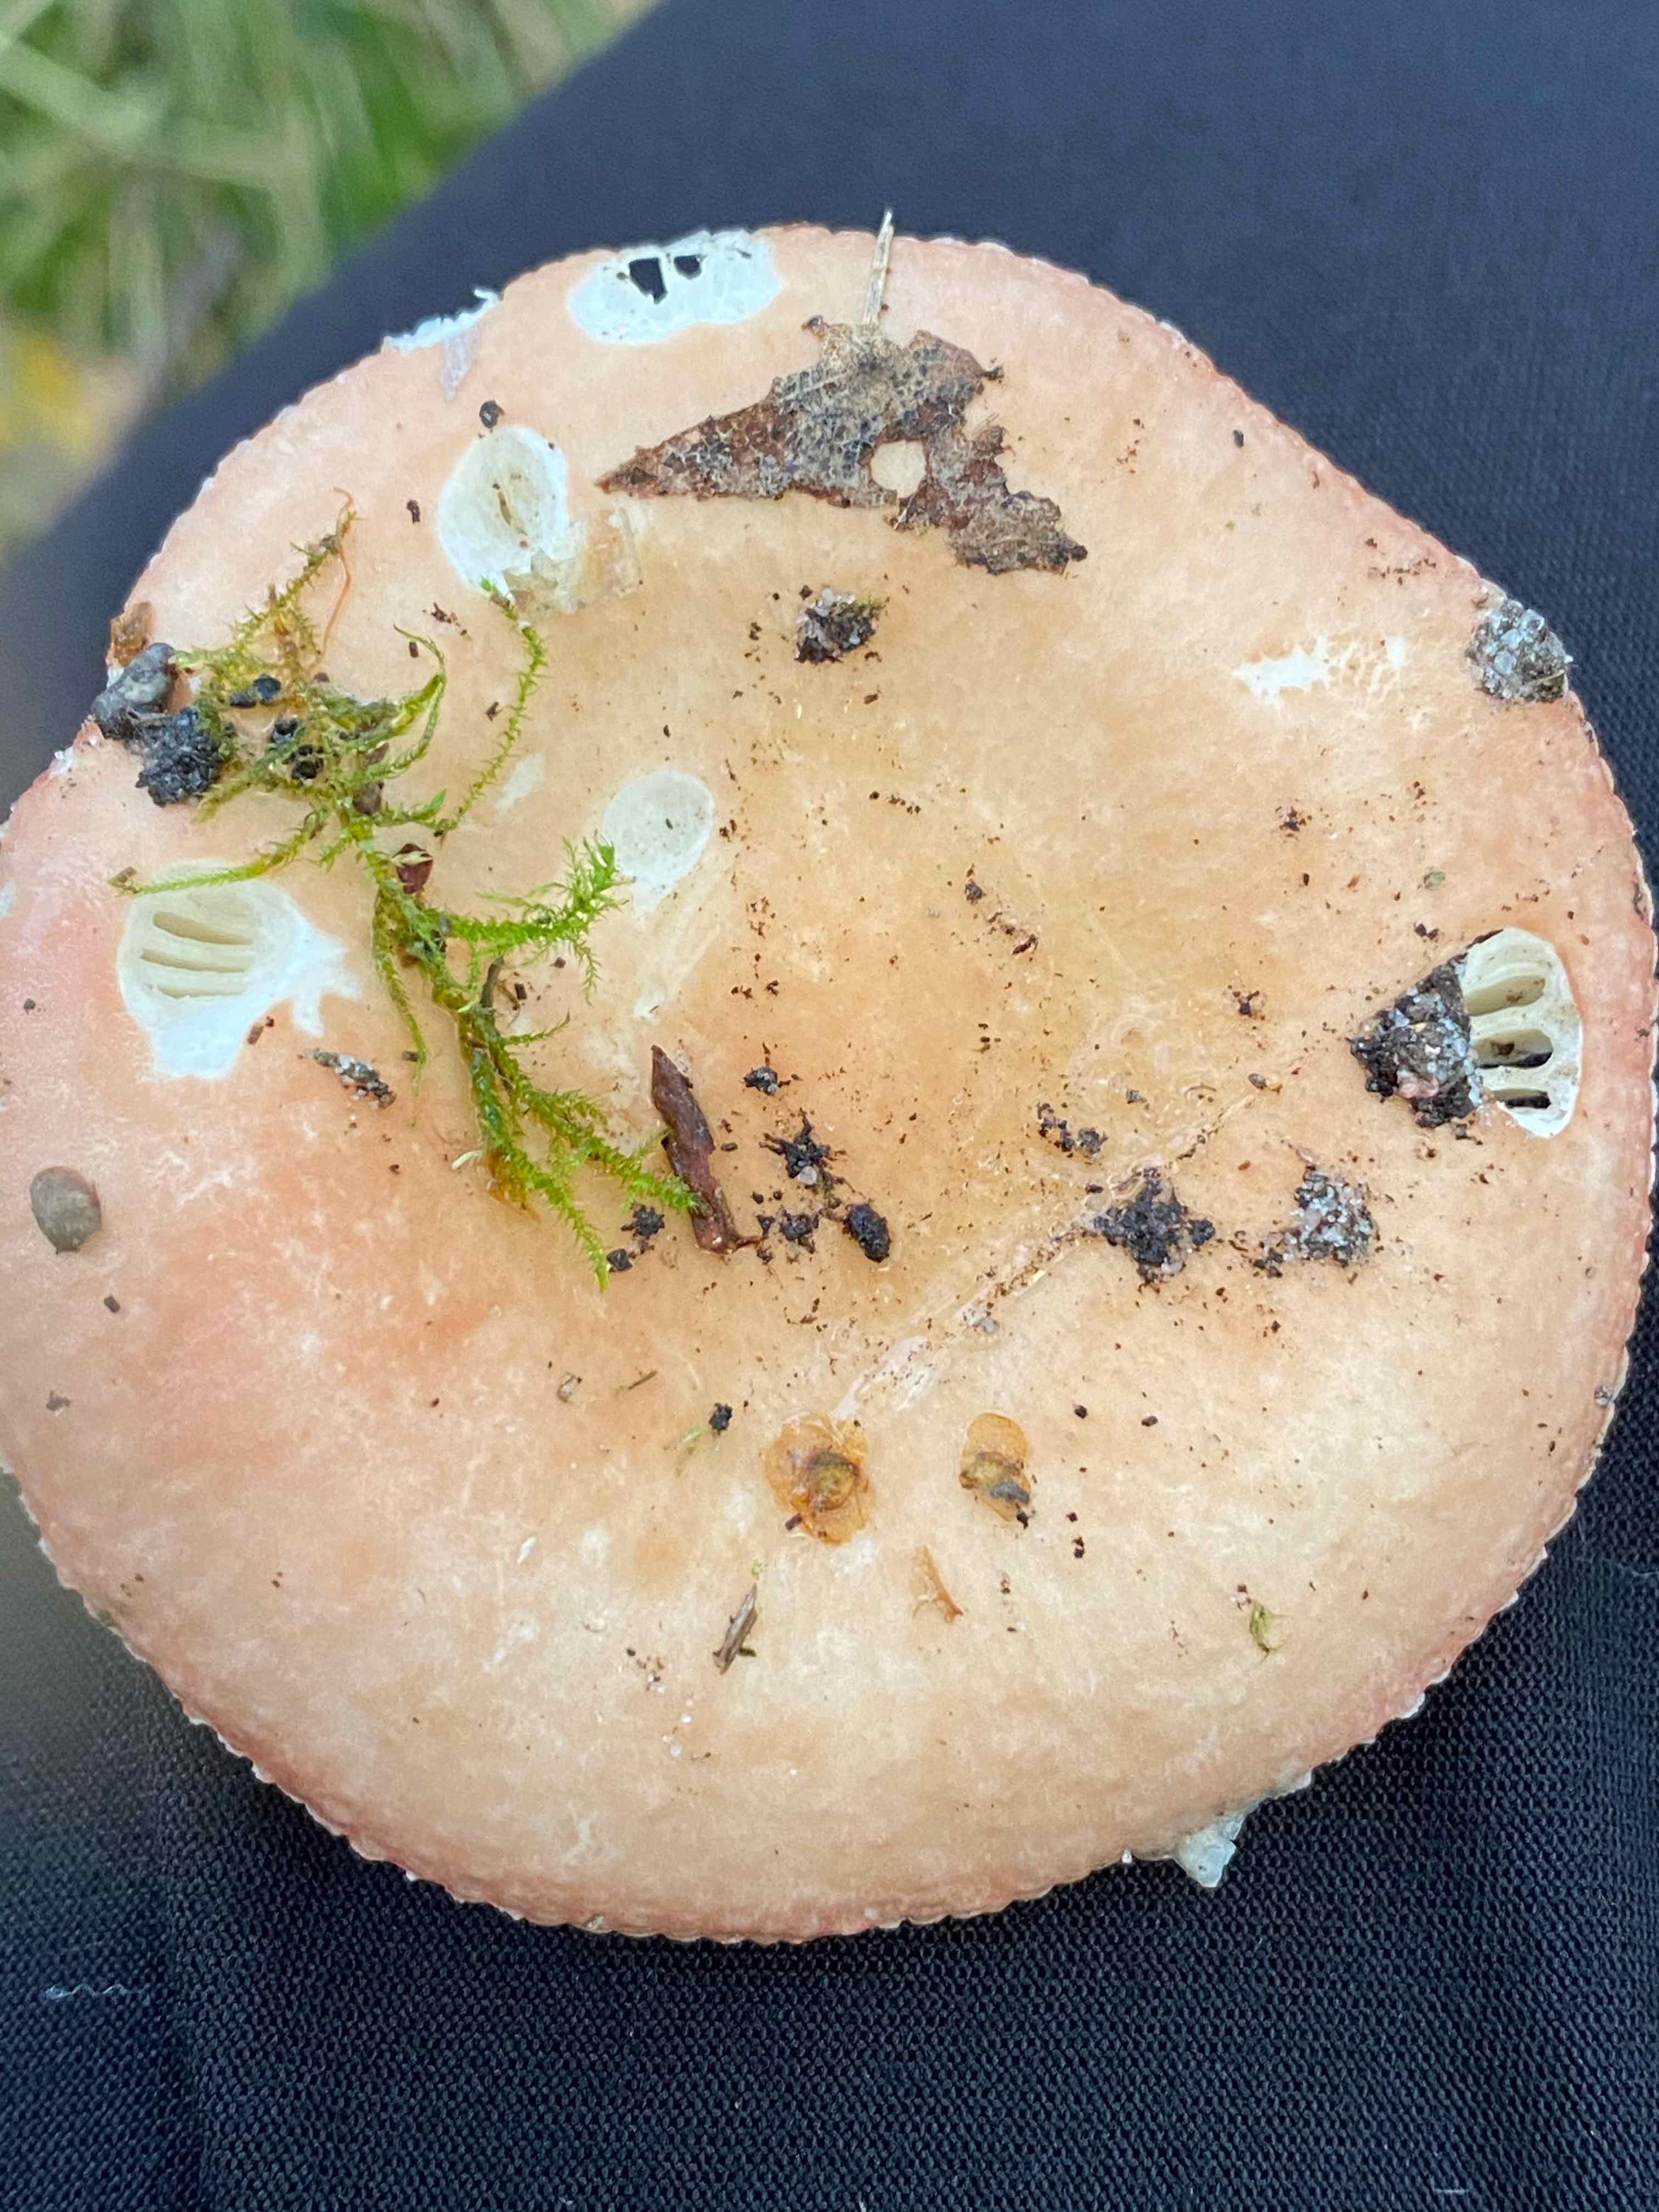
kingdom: Fungi
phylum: Basidiomycota
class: Agaricomycetes
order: Russulales
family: Russulaceae
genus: Russula
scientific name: Russula depallens
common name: falmende skørhat
